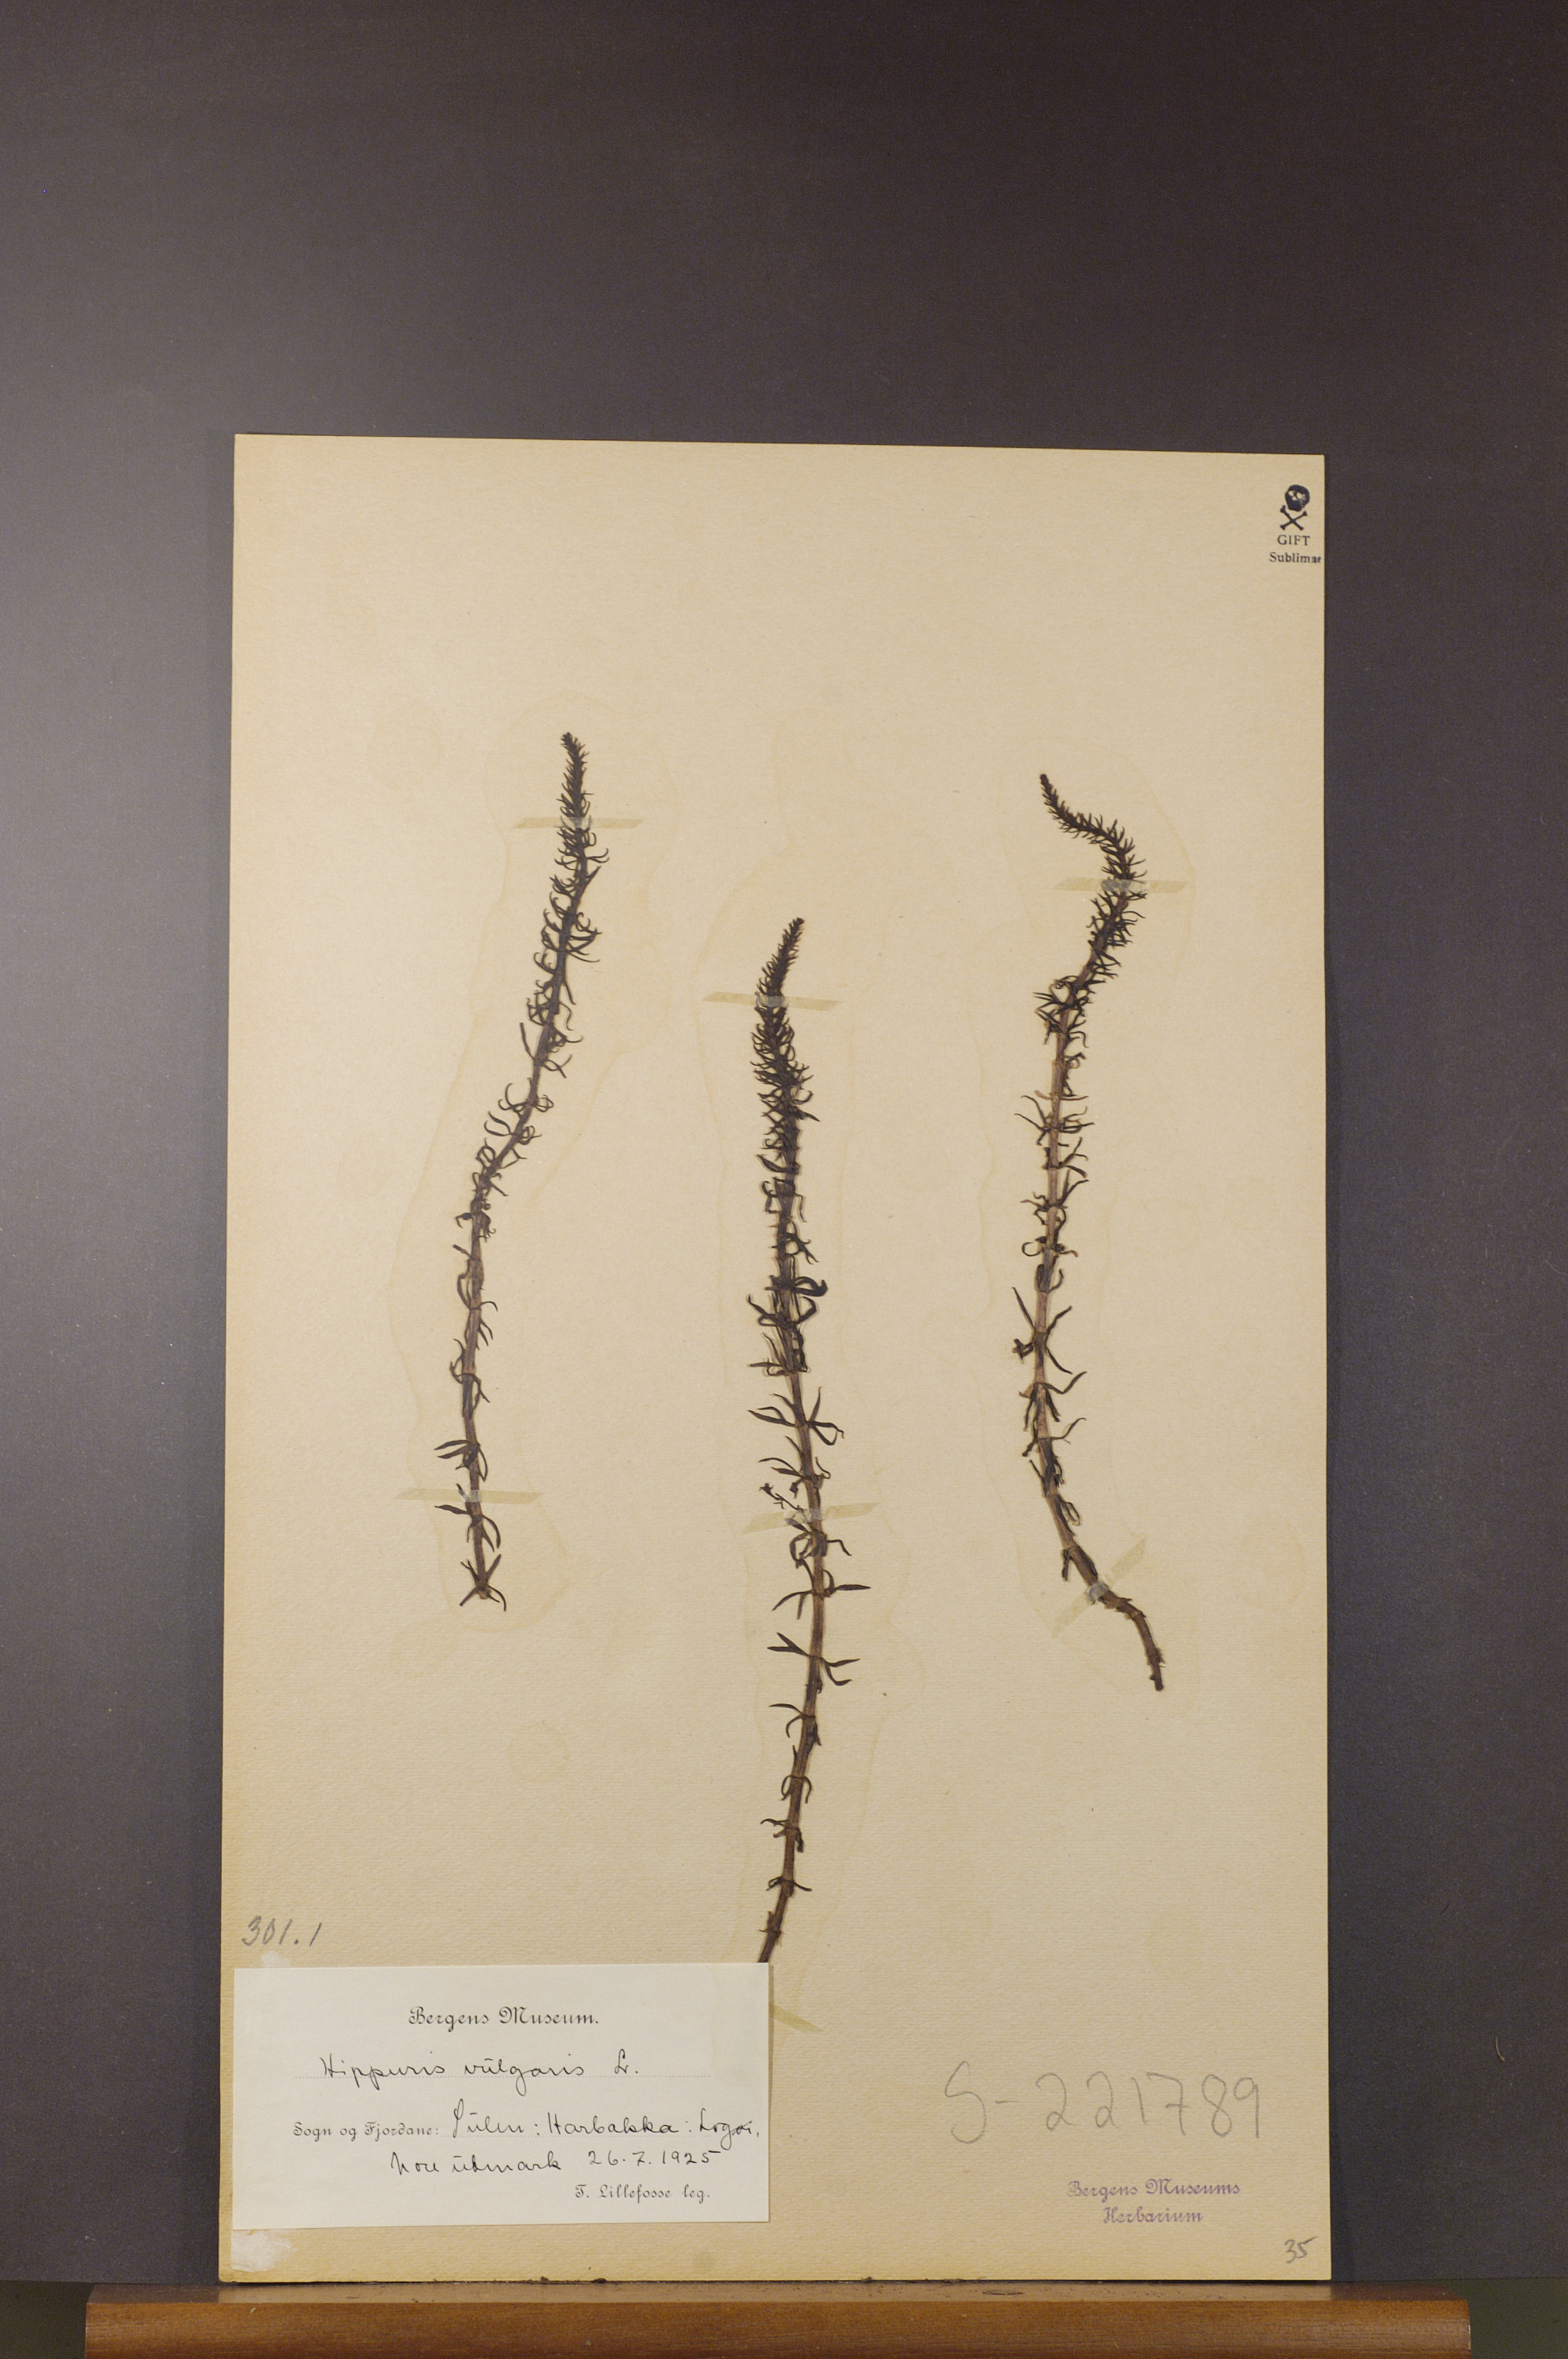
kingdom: Plantae
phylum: Tracheophyta
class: Magnoliopsida
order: Lamiales
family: Plantaginaceae
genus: Hippuris
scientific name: Hippuris vulgaris
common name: Mare's-tail
